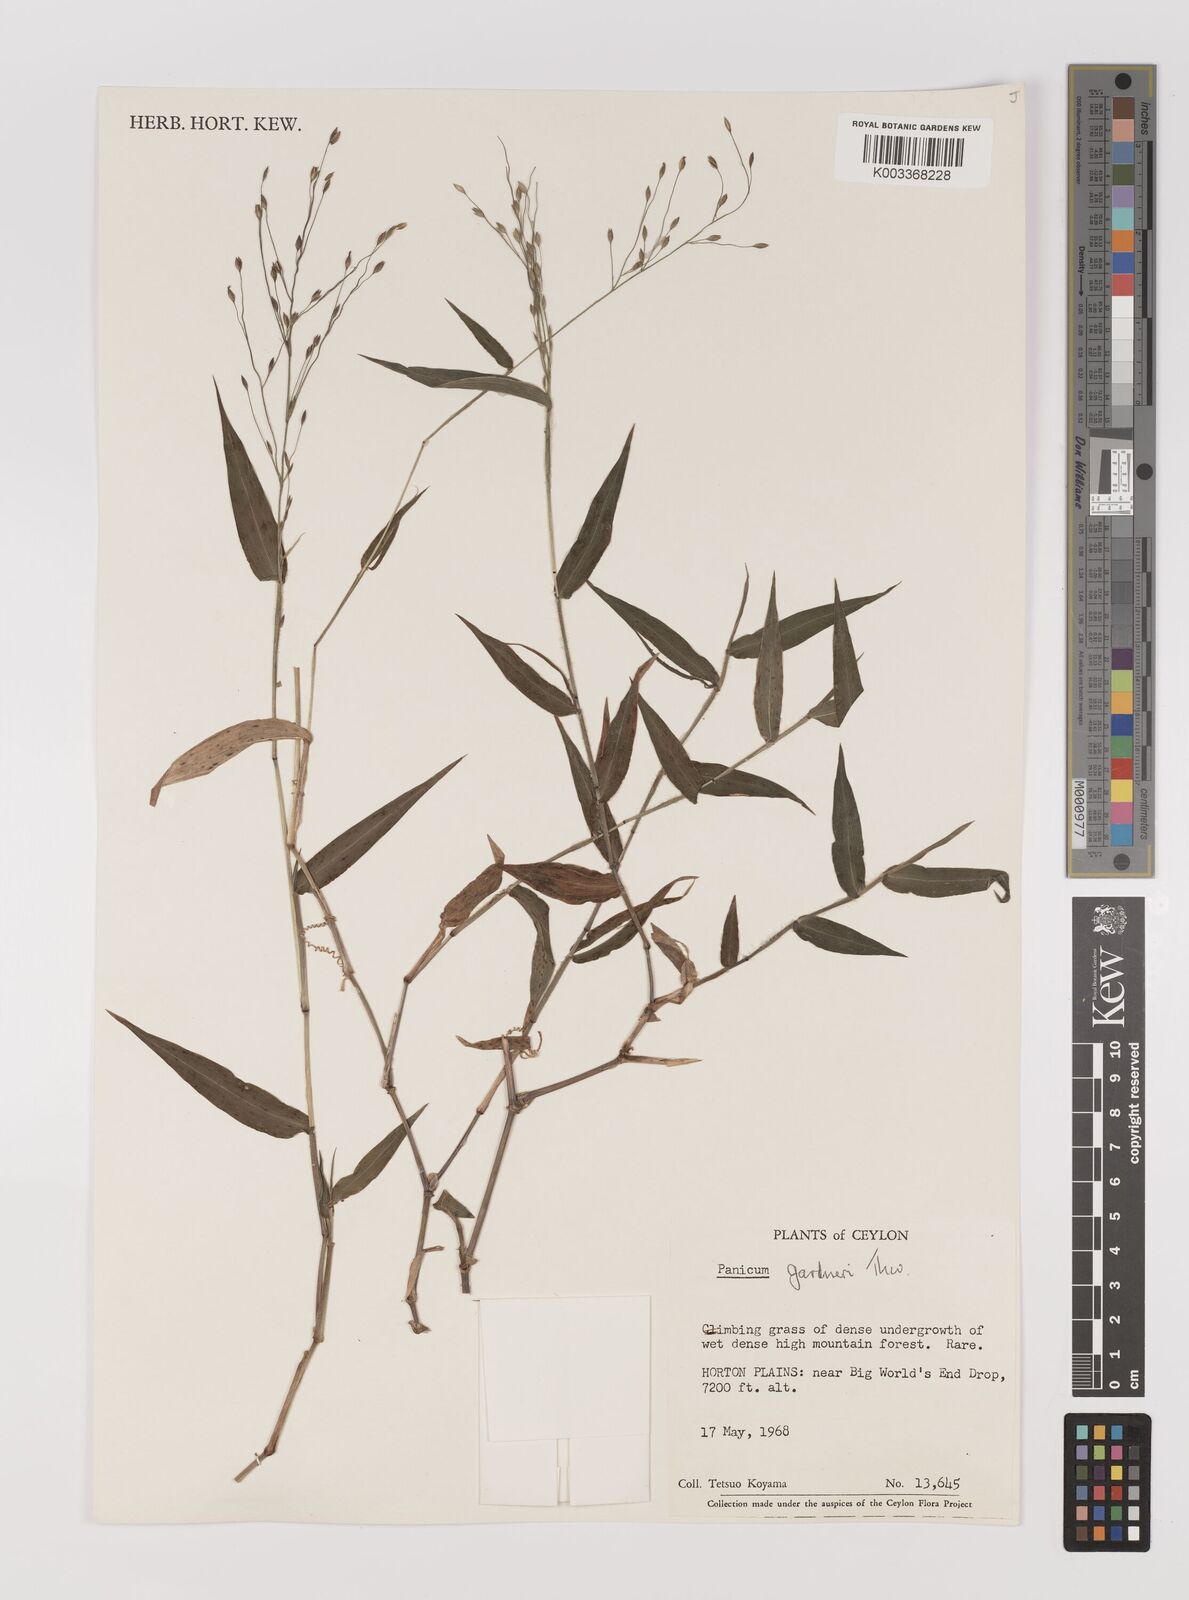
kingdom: Plantae
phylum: Tracheophyta
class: Liliopsida
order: Poales
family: Poaceae
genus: Panicum
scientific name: Panicum gardneri
